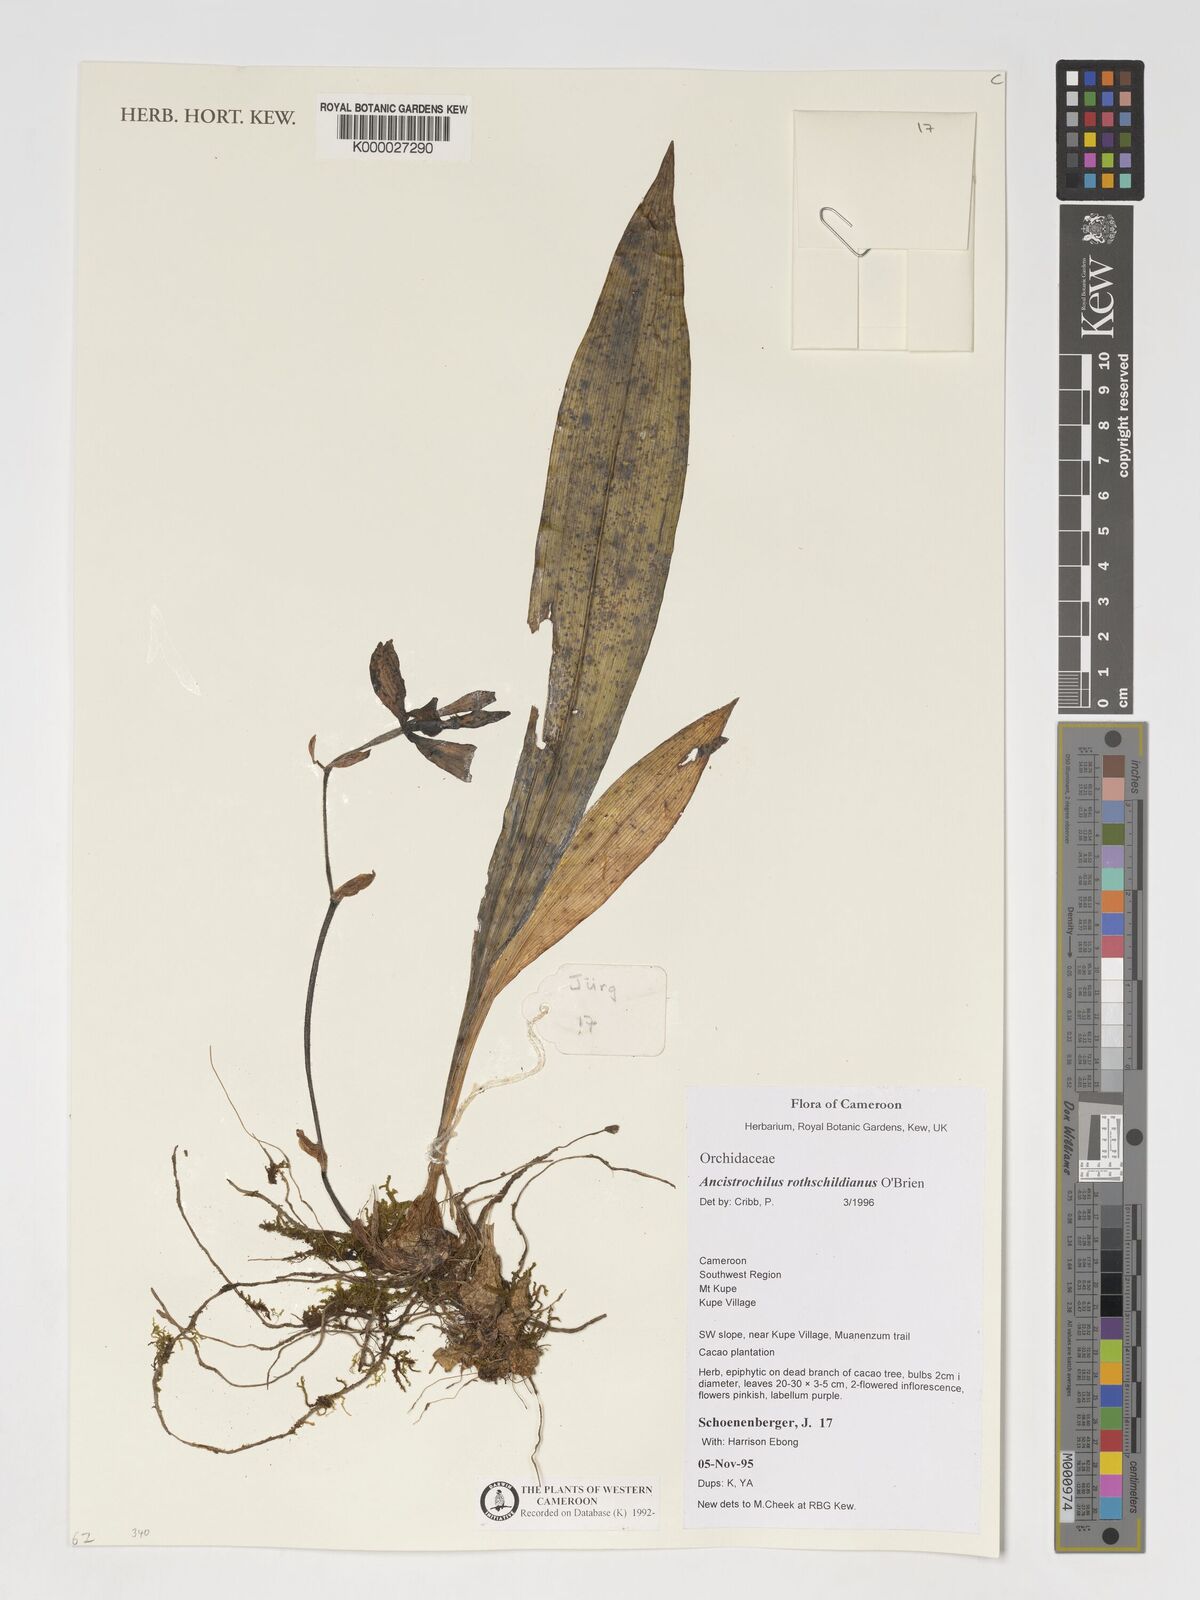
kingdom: Plantae
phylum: Tracheophyta
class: Liliopsida
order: Asparagales
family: Orchidaceae
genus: Ancistrochilus
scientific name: Ancistrochilus rothschildianus
